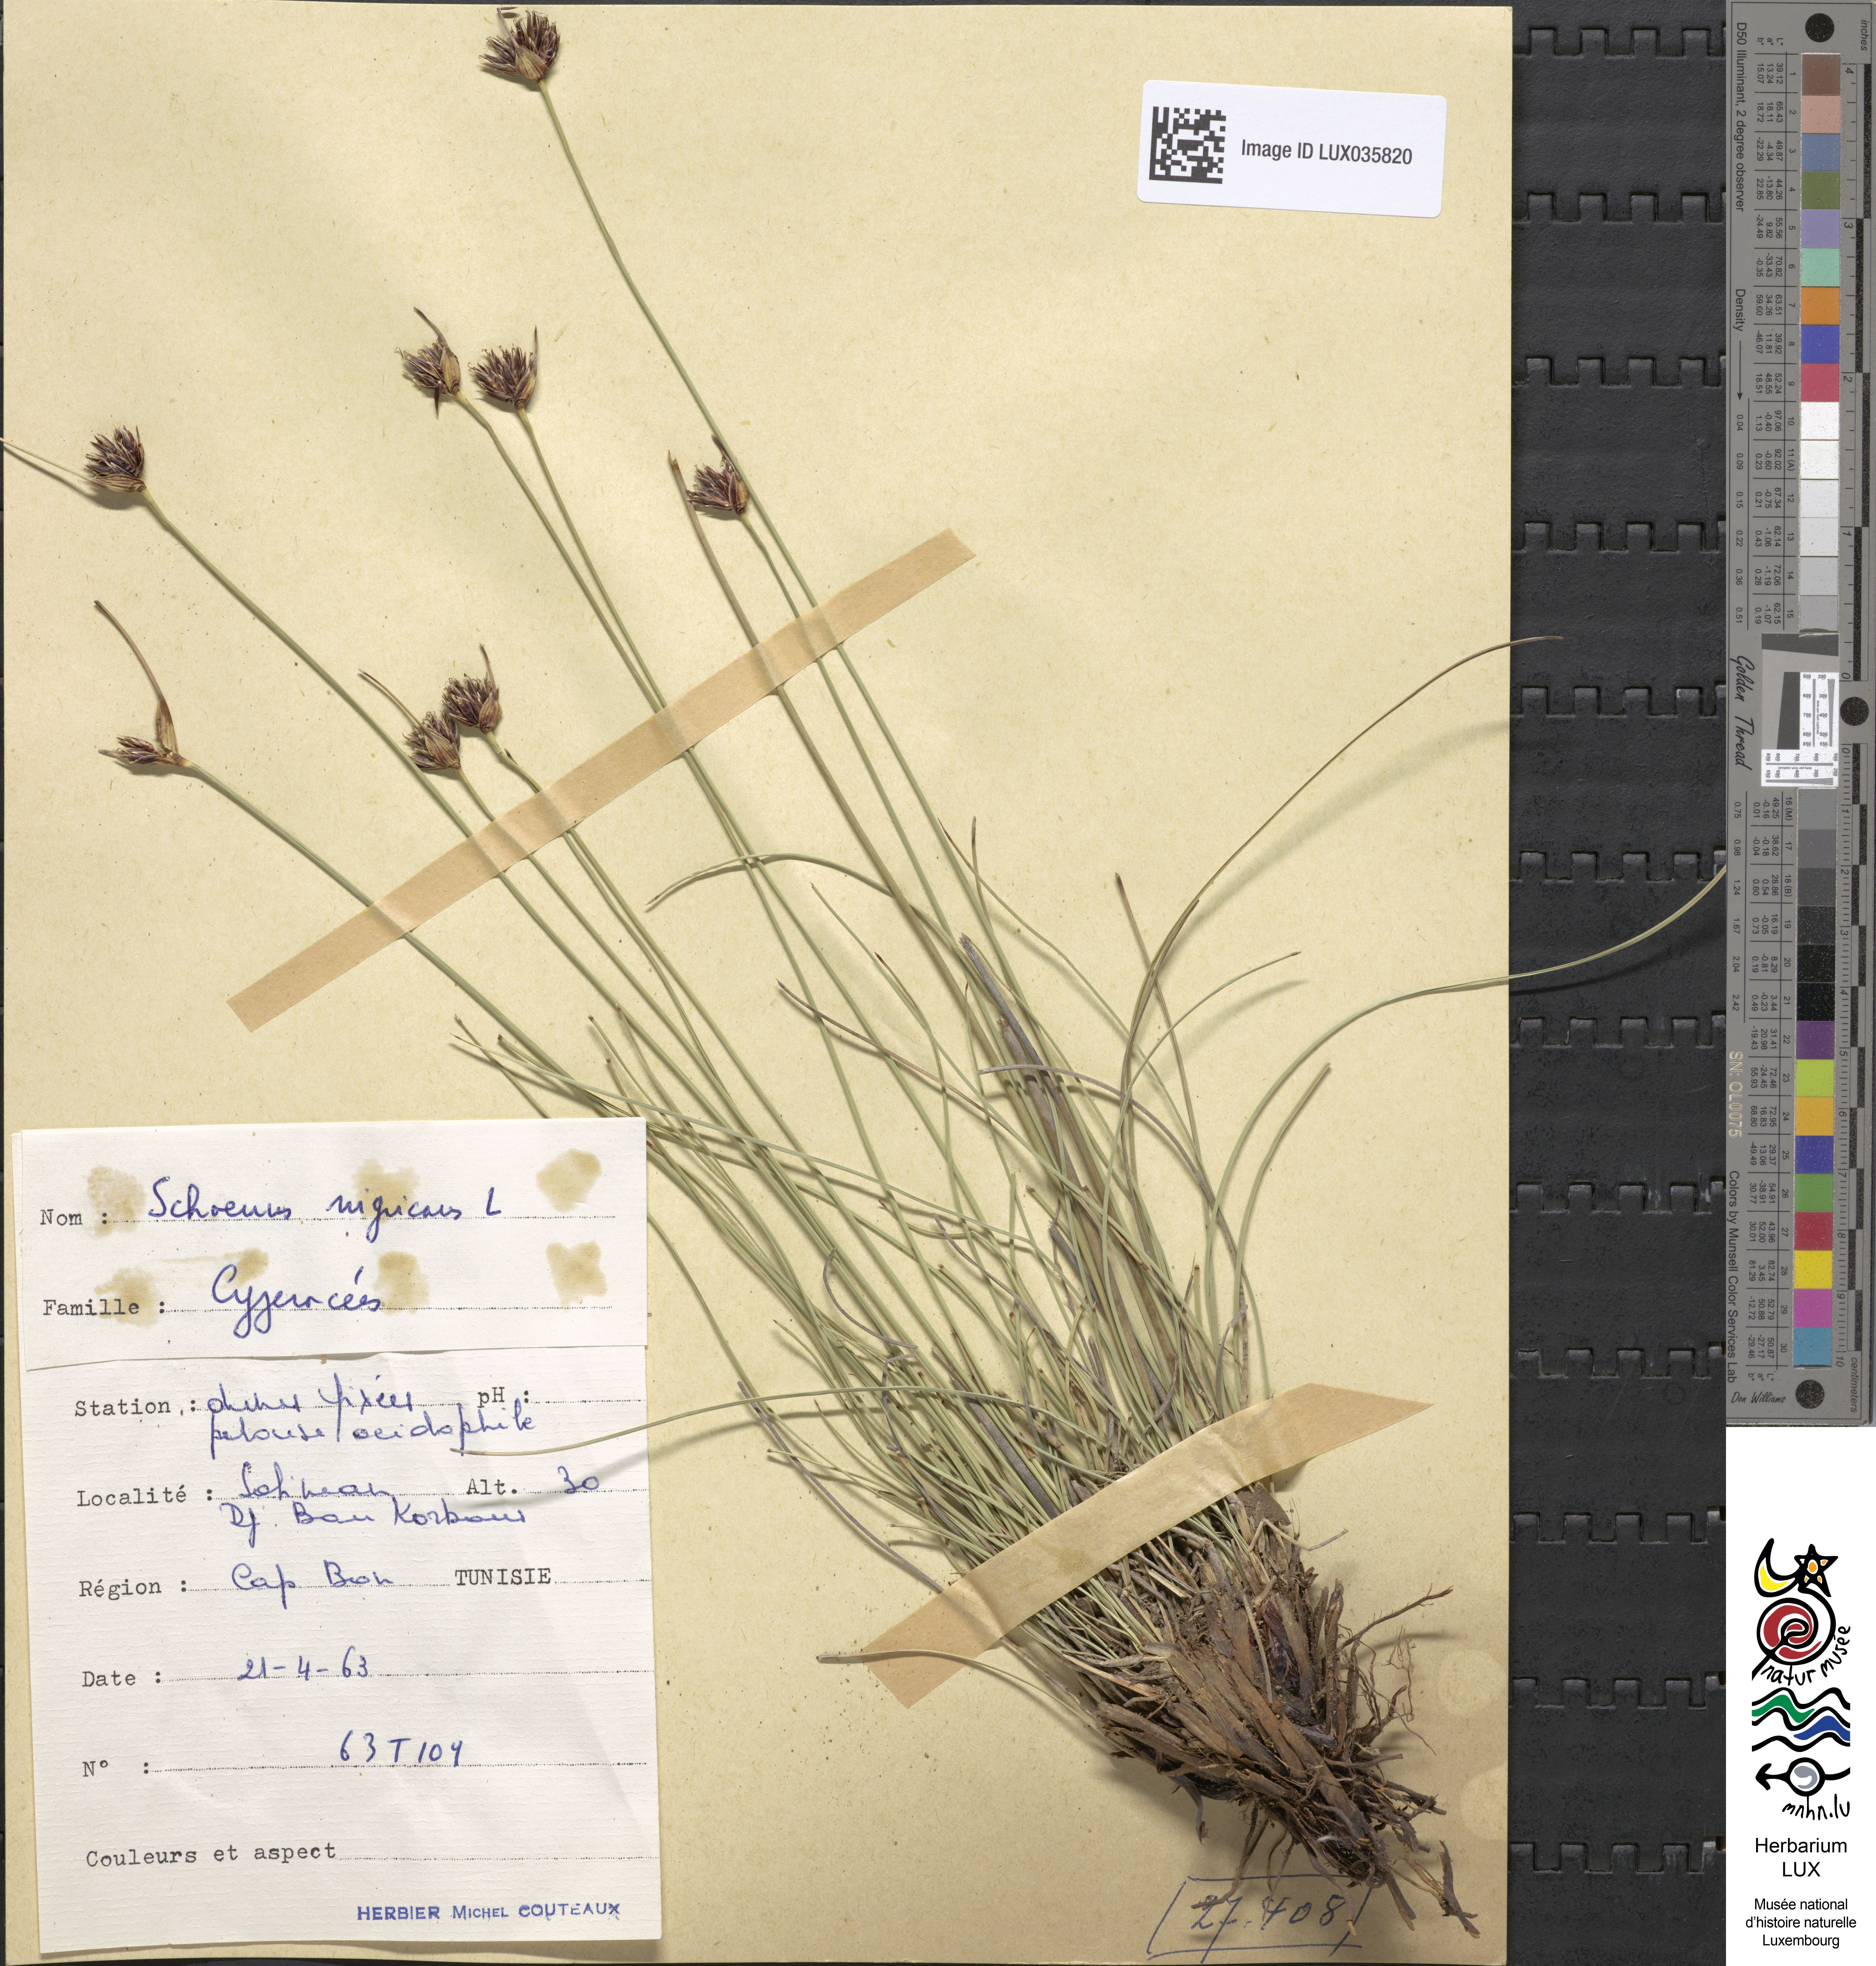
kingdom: Plantae
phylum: Tracheophyta
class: Liliopsida
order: Poales
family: Cyperaceae
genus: Schoenus
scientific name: Schoenus nigricans
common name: Black bog-rush
